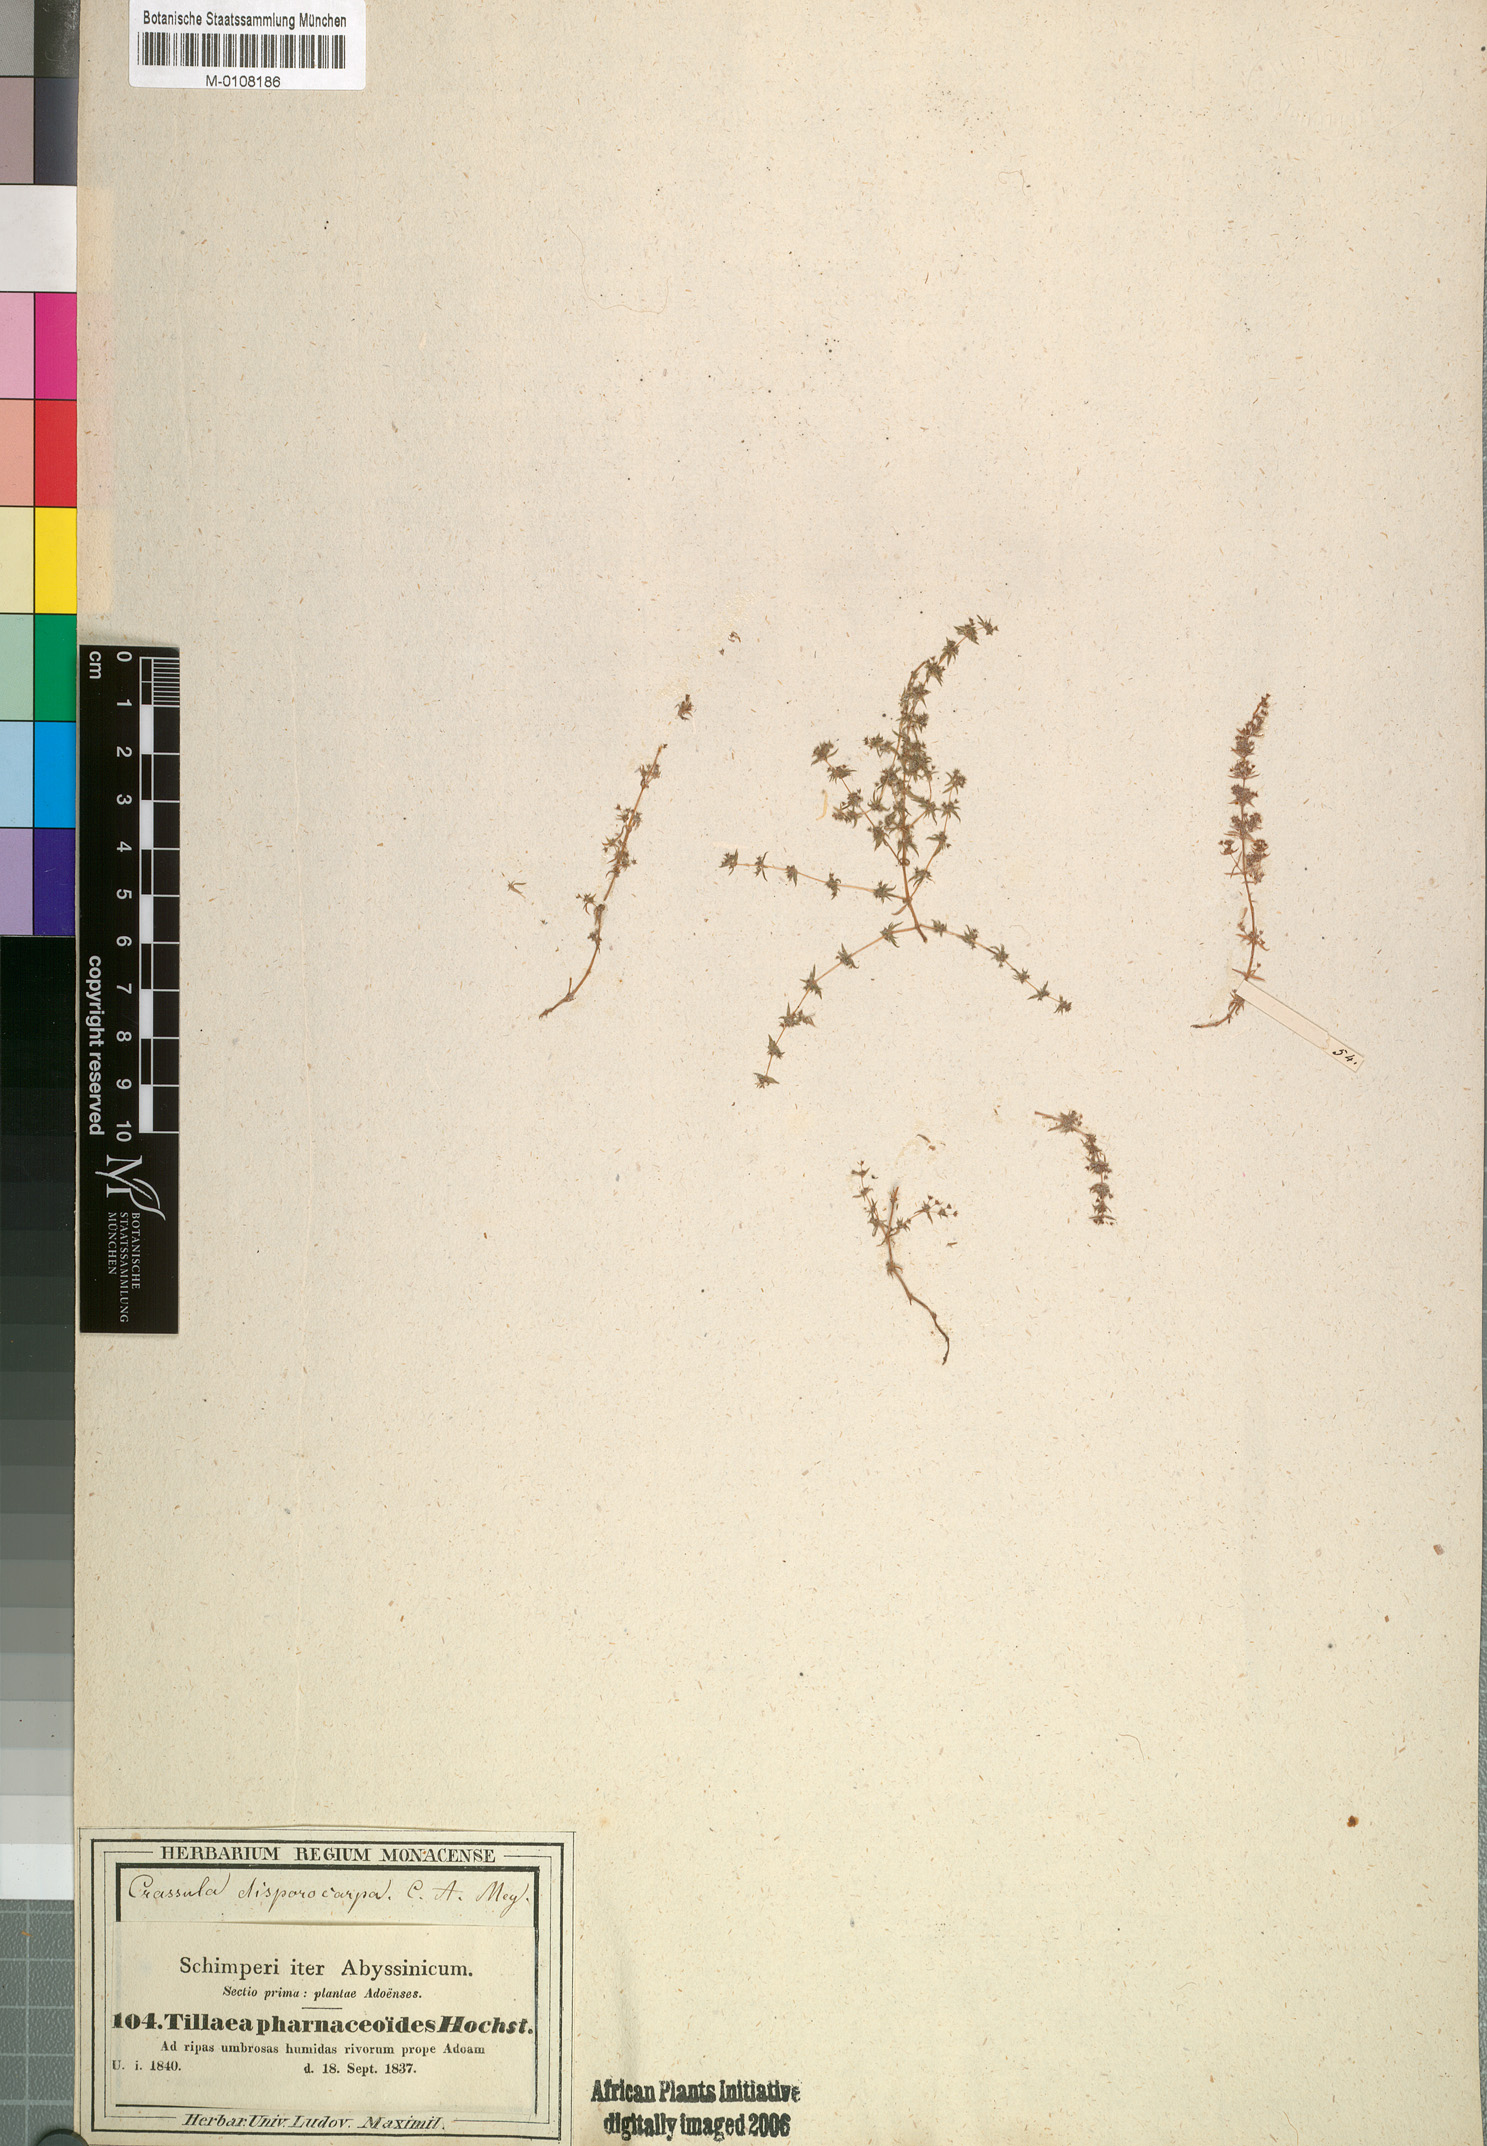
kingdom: Plantae
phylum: Tracheophyta
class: Magnoliopsida
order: Saxifragales
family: Crassulaceae
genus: Crassula
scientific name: Crassula alata
